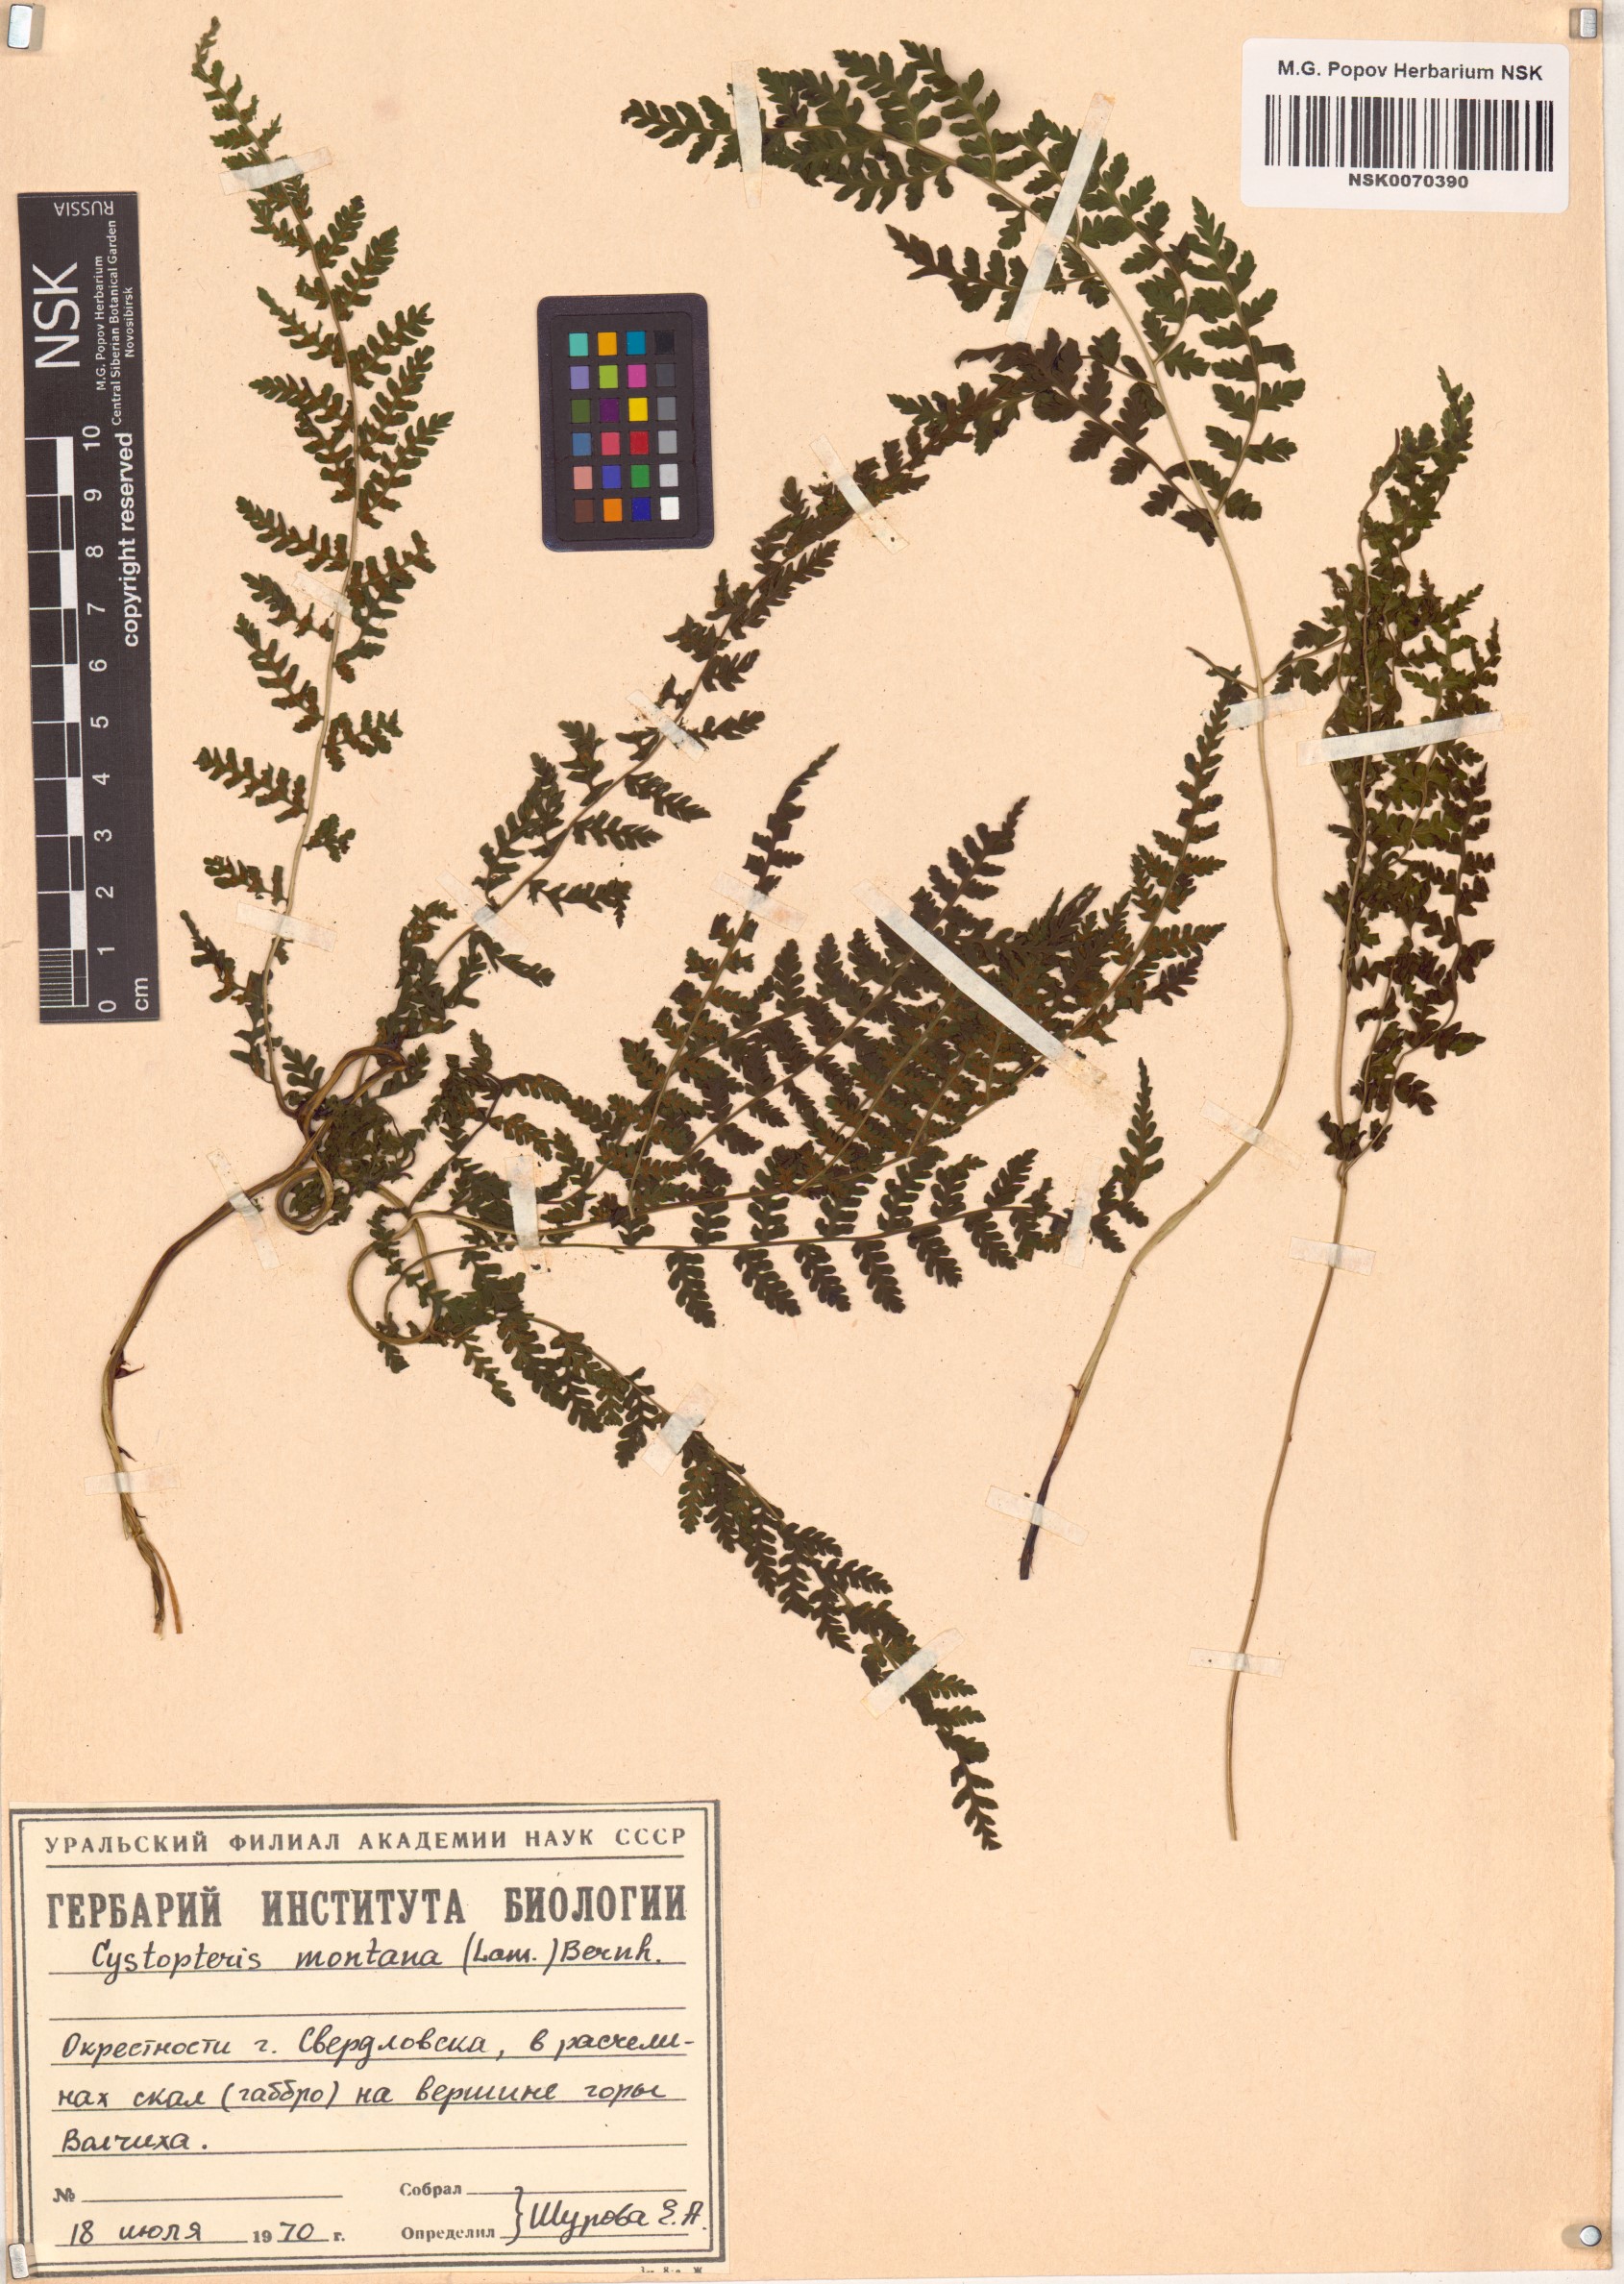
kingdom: Plantae
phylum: Tracheophyta
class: Polypodiopsida
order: Polypodiales
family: Cystopteridaceae
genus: Cystopteris
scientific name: Cystopteris montana
